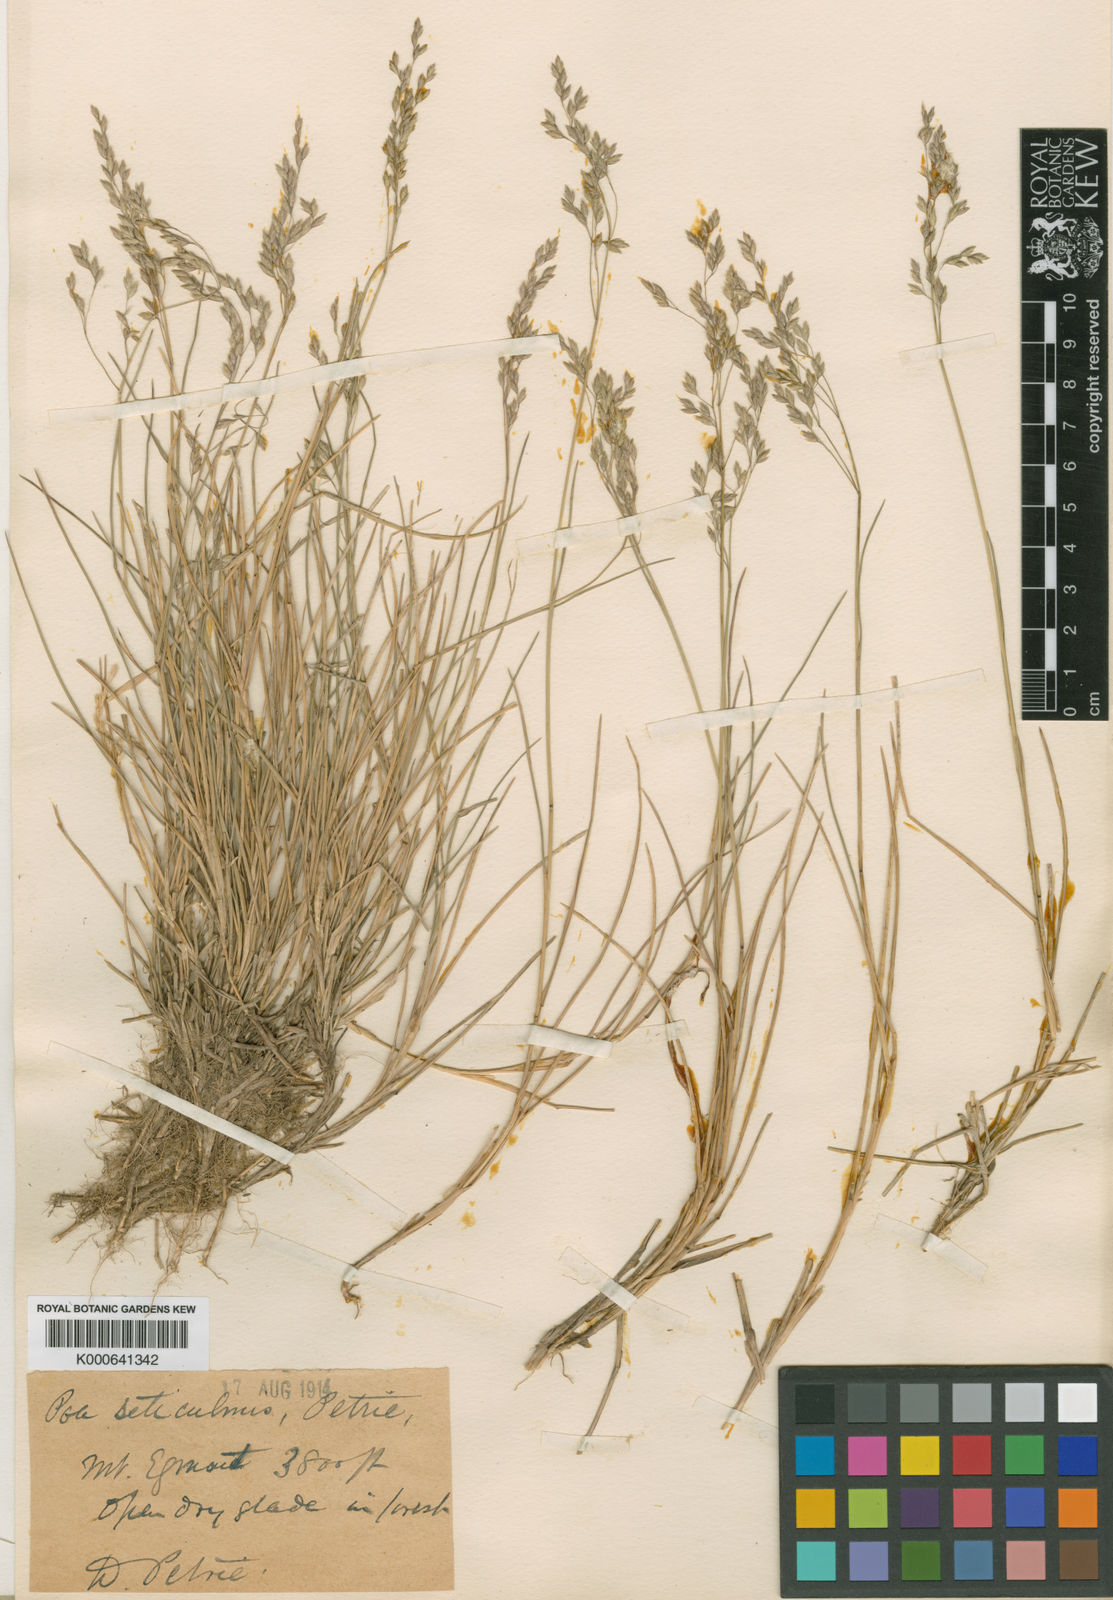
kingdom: Plantae
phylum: Tracheophyta
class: Liliopsida
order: Poales
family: Poaceae
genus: Poa
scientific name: Poa pusilla
